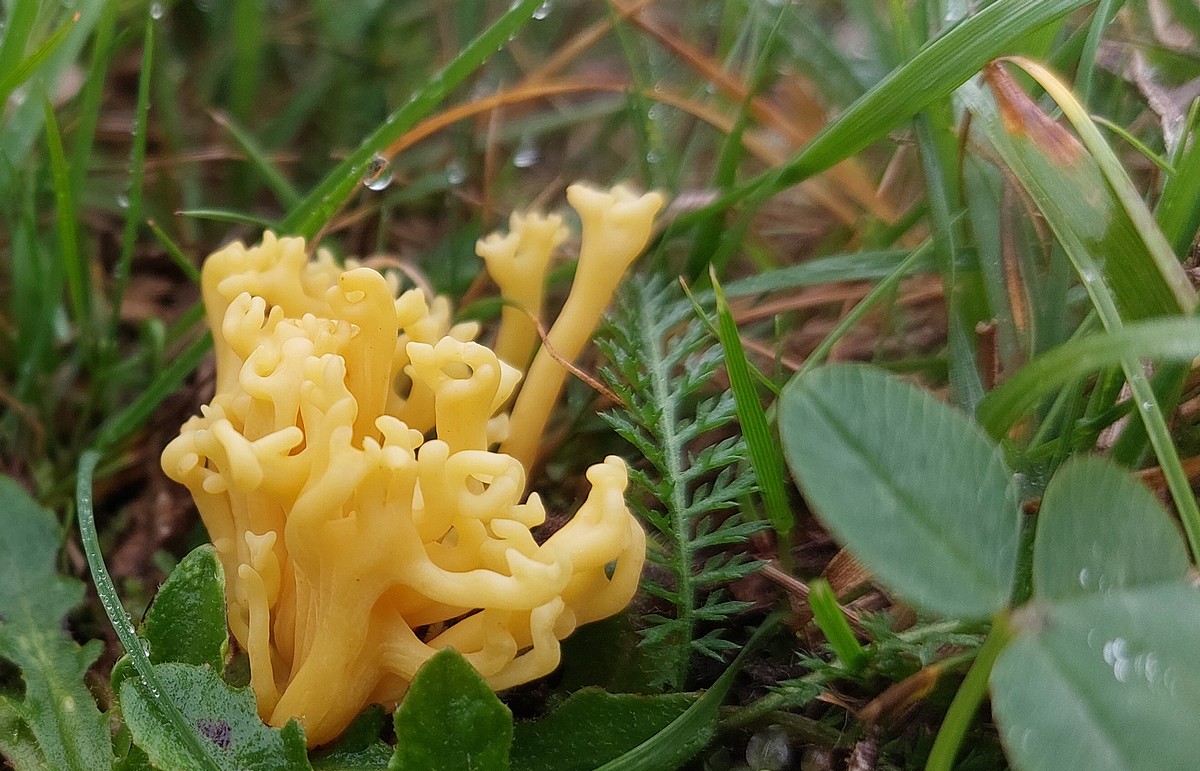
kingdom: Fungi
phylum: Basidiomycota
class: Agaricomycetes
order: Agaricales
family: Clavariaceae
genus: Clavulinopsis
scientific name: Clavulinopsis corniculata
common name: eng-køllesvamp
